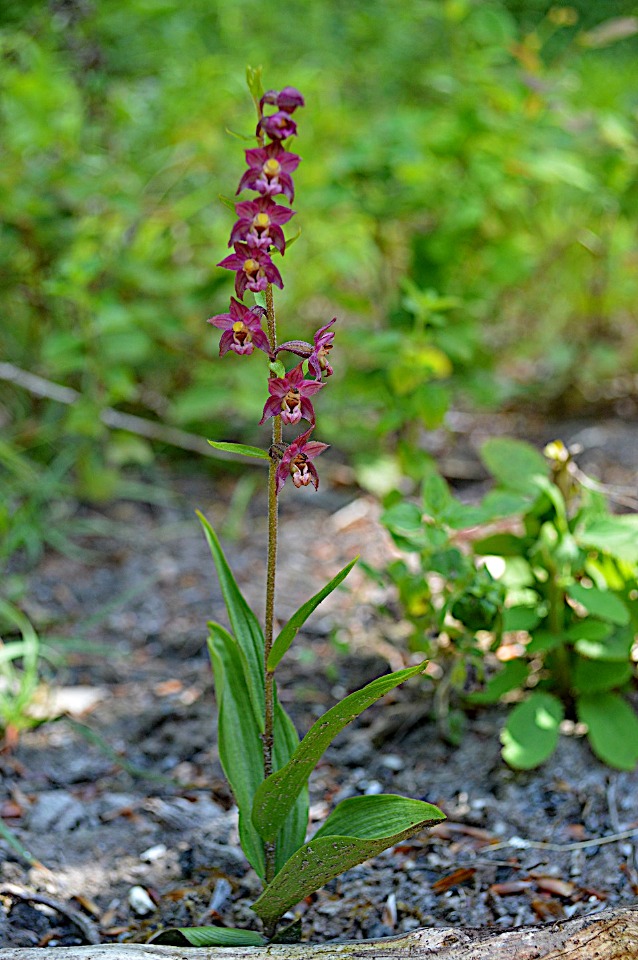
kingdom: Plantae
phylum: Tracheophyta
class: Liliopsida
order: Asparagales
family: Orchidaceae
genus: Epipactis
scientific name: Epipactis atrorubens
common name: Rød hullæbe
